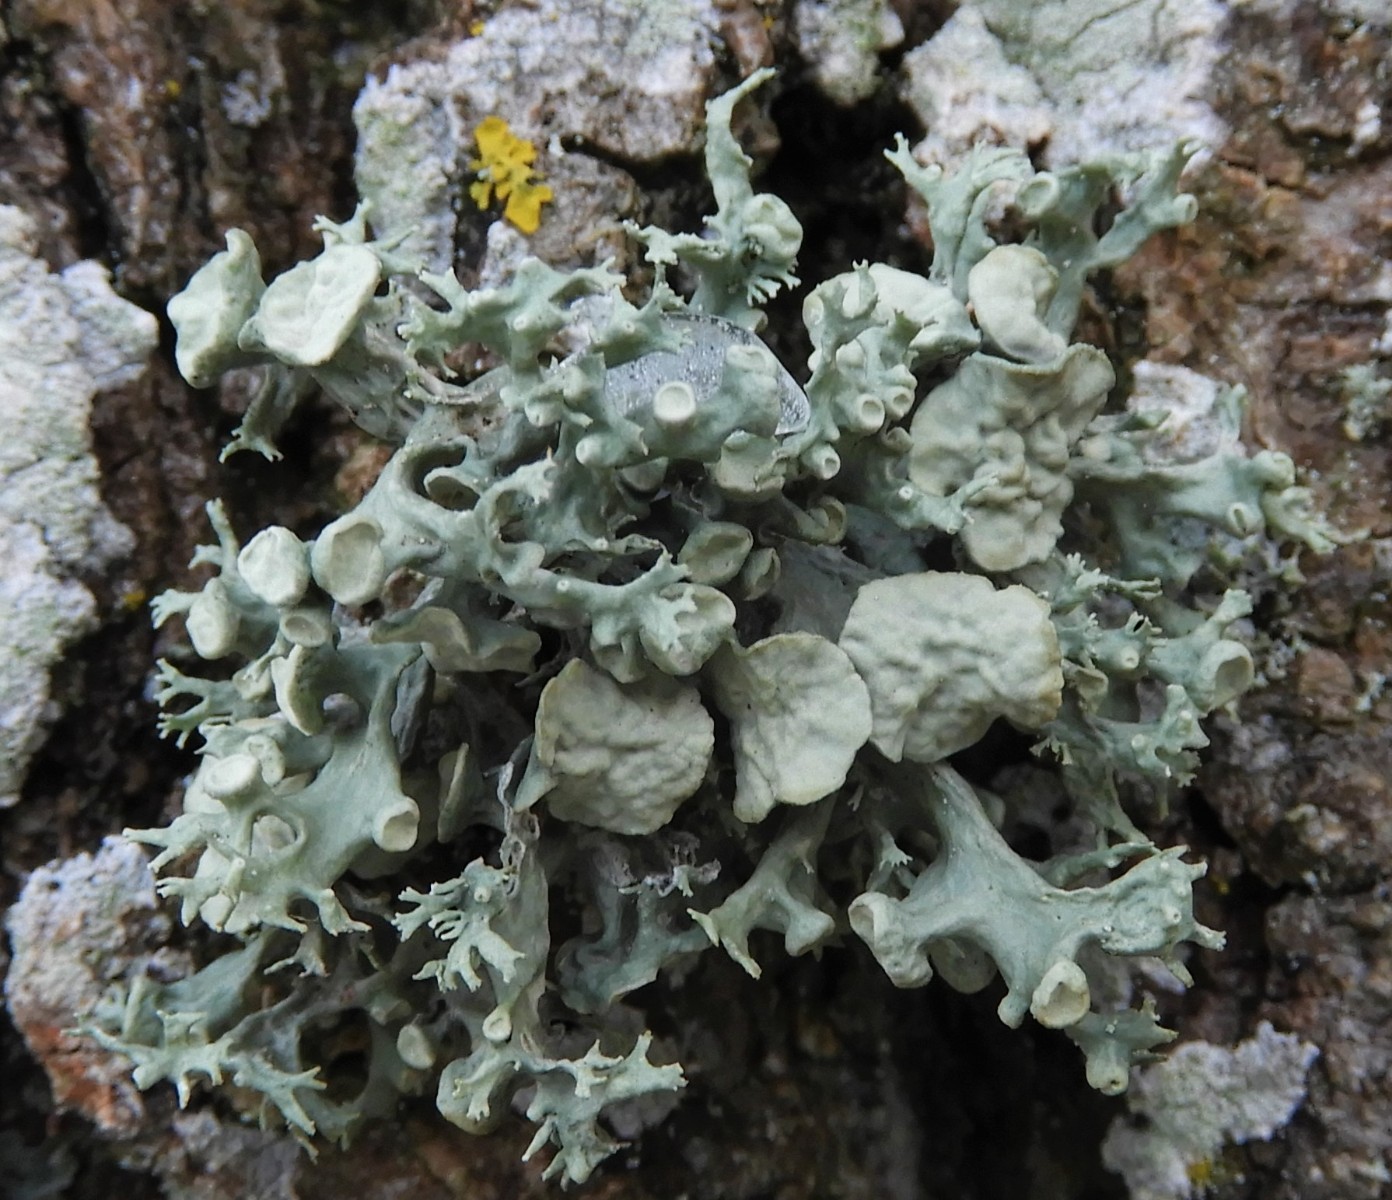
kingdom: Fungi
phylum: Ascomycota
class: Lecanoromycetes
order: Lecanorales
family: Ramalinaceae
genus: Ramalina
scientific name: Ramalina fastigiata
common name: tue-grenlav
